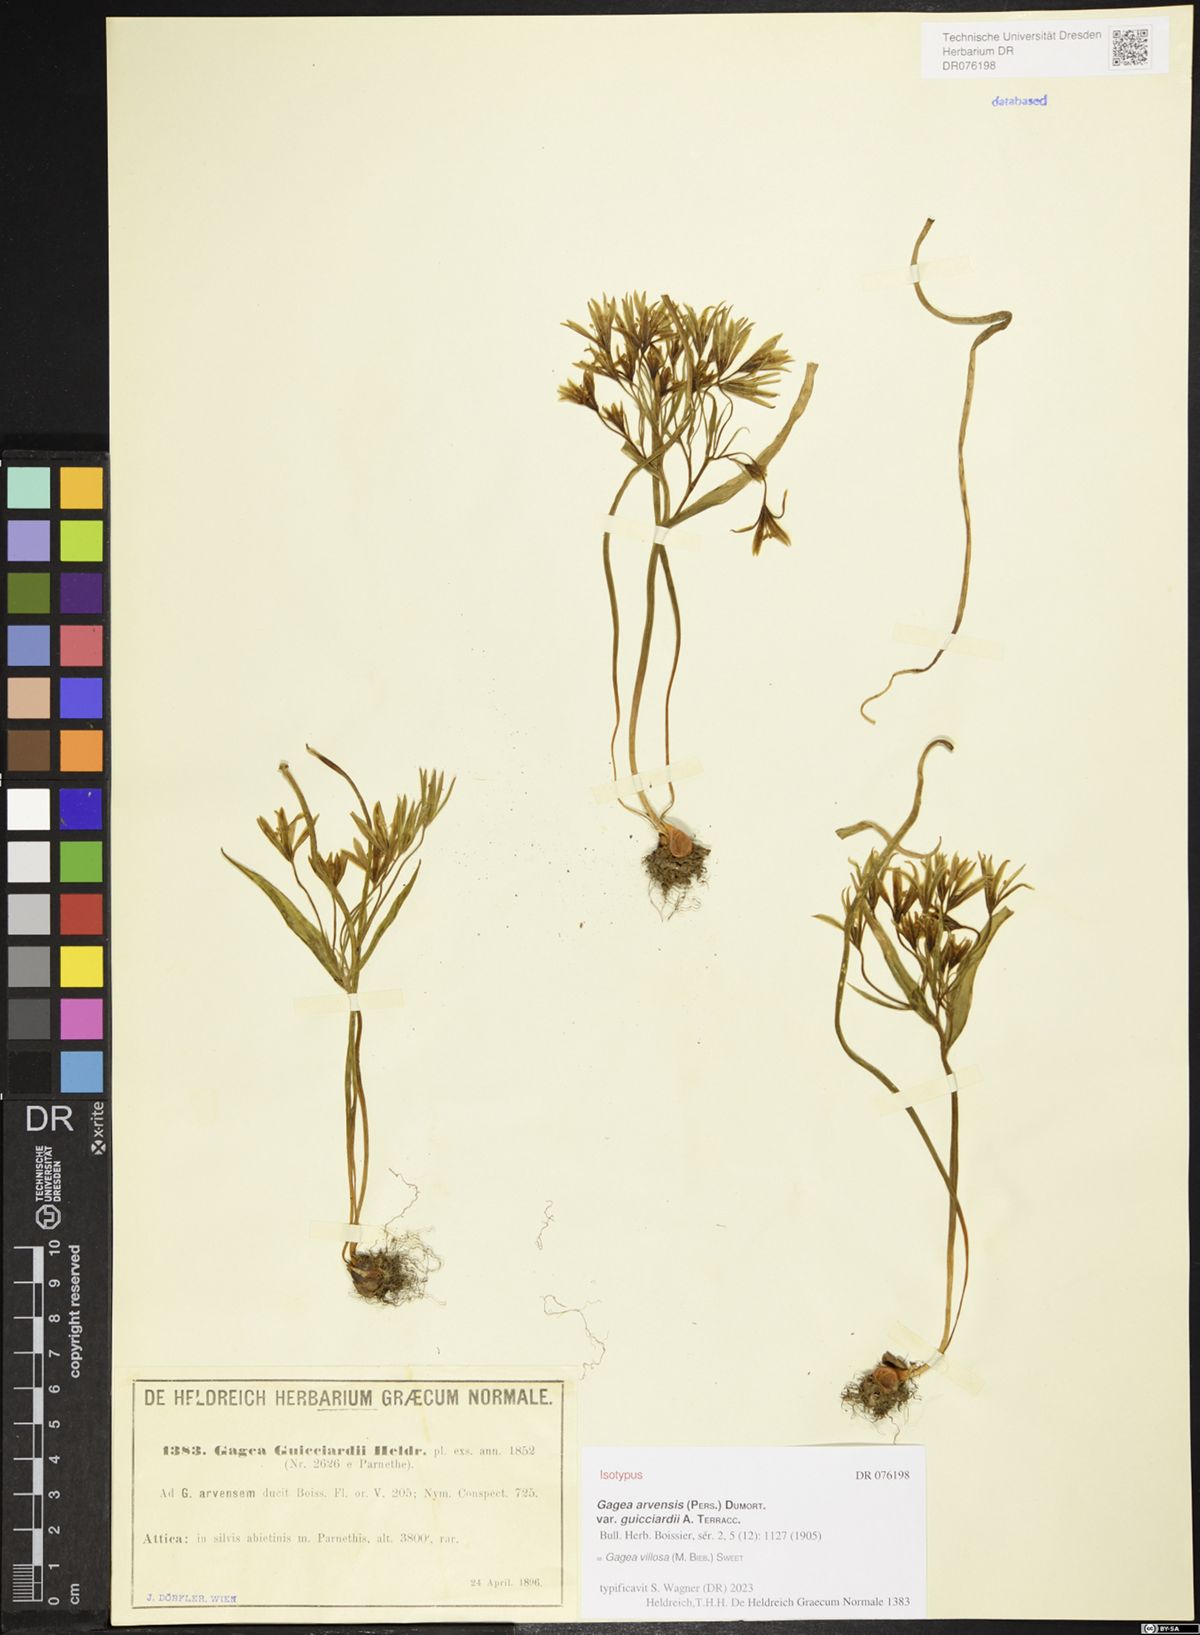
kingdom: Plantae
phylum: Tracheophyta
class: Liliopsida
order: Liliales
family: Liliaceae
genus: Gagea
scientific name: Gagea villosa
